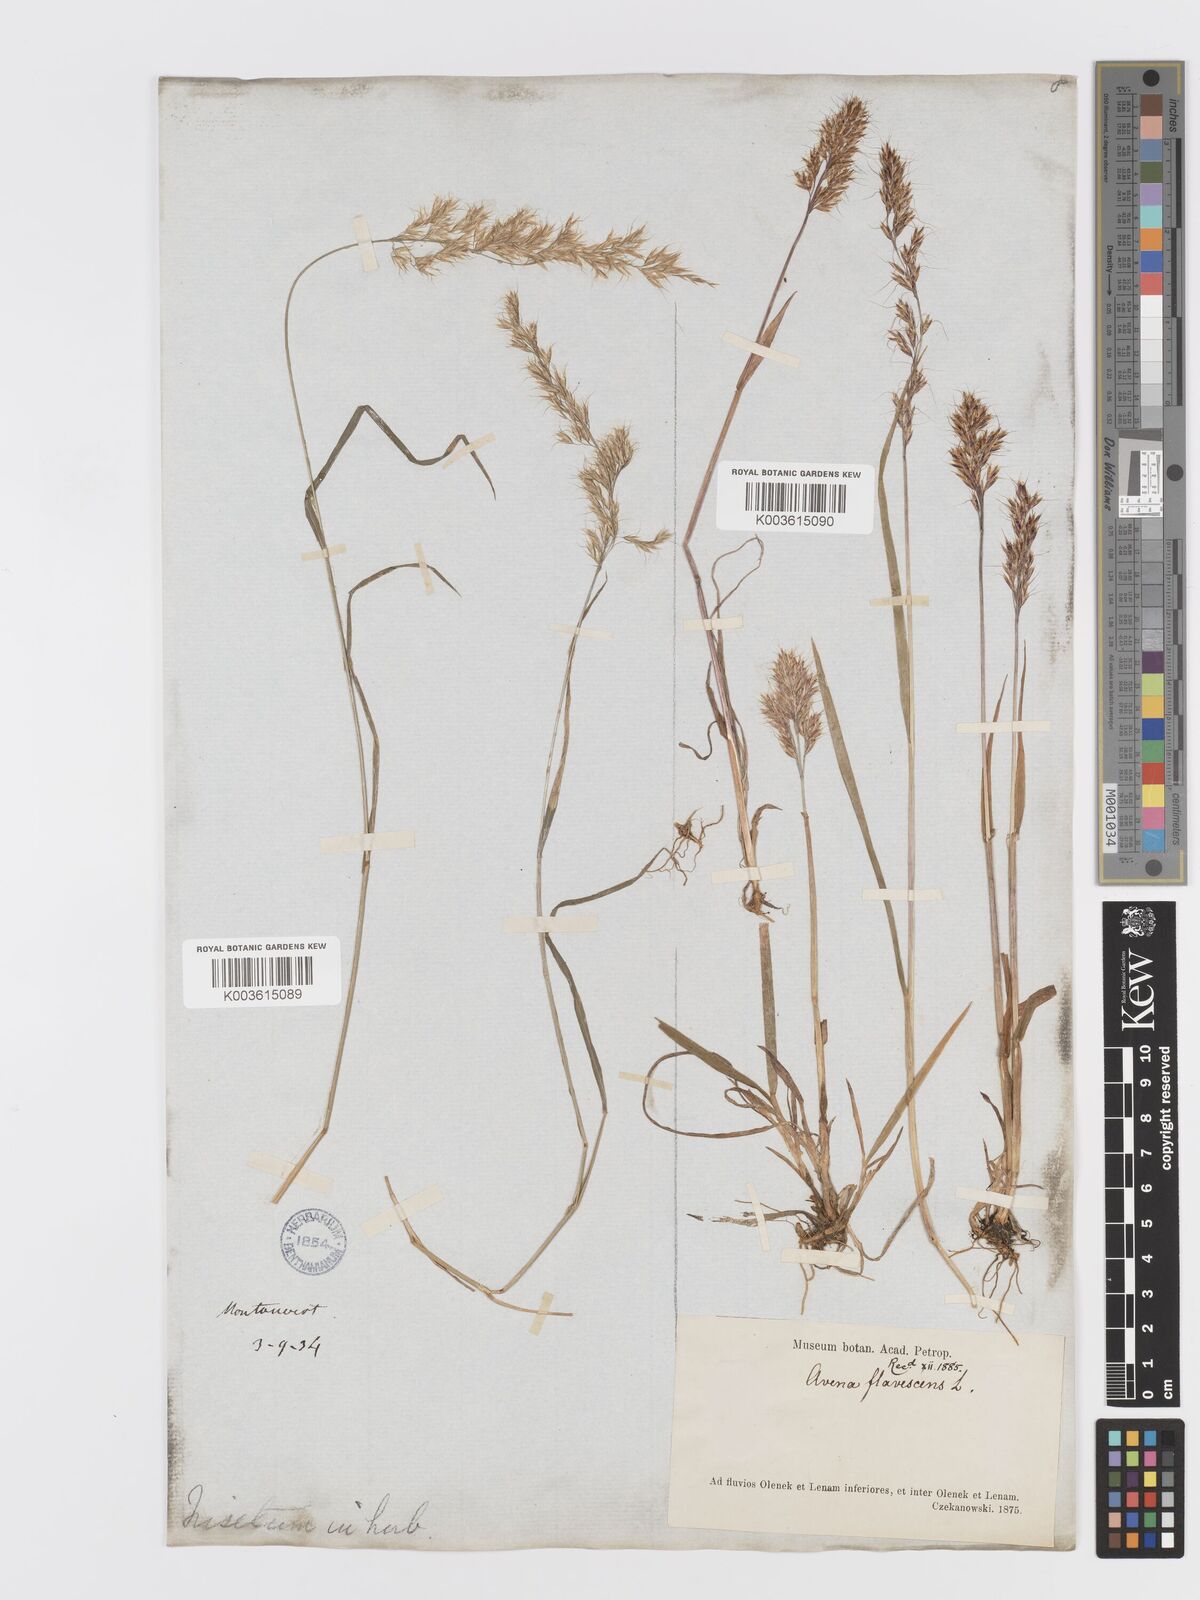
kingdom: Plantae
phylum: Tracheophyta
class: Liliopsida
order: Poales
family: Poaceae
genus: Sibirotrisetum
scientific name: Sibirotrisetum sibiricum
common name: Siberian false oat
